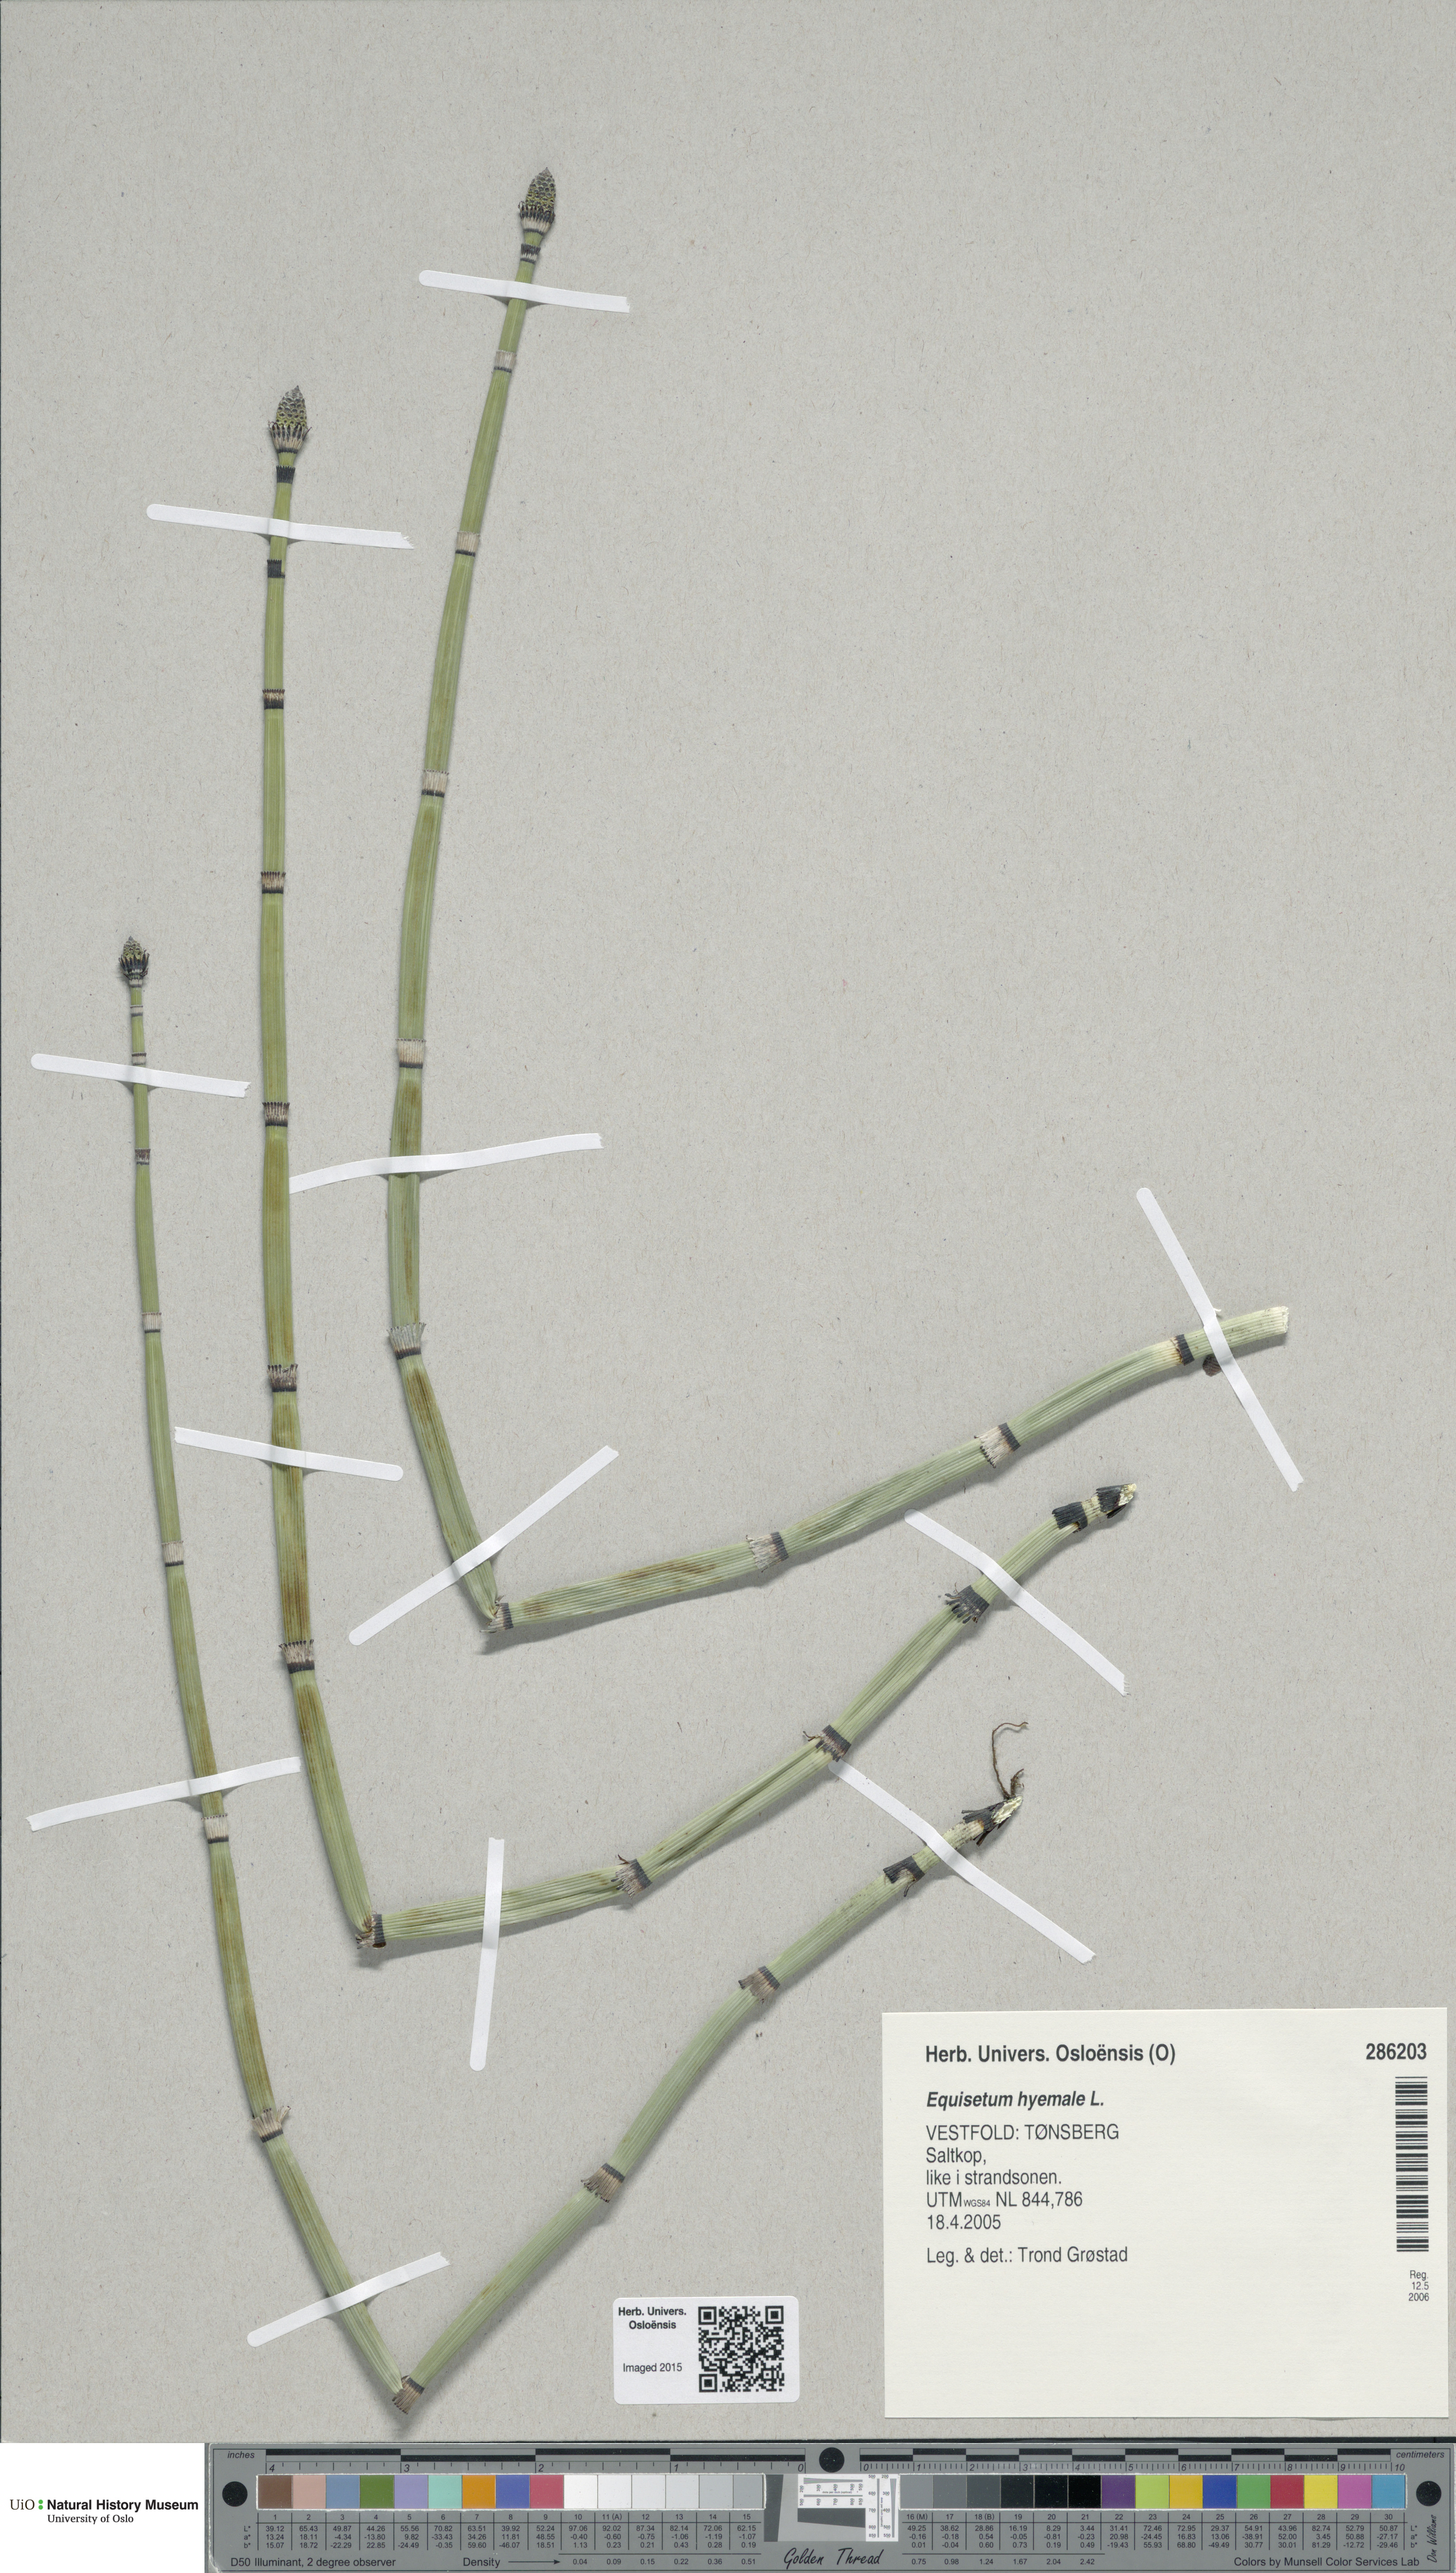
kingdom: Plantae
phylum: Tracheophyta
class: Polypodiopsida
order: Equisetales
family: Equisetaceae
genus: Equisetum
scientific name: Equisetum hyemale
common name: Rough horsetail
